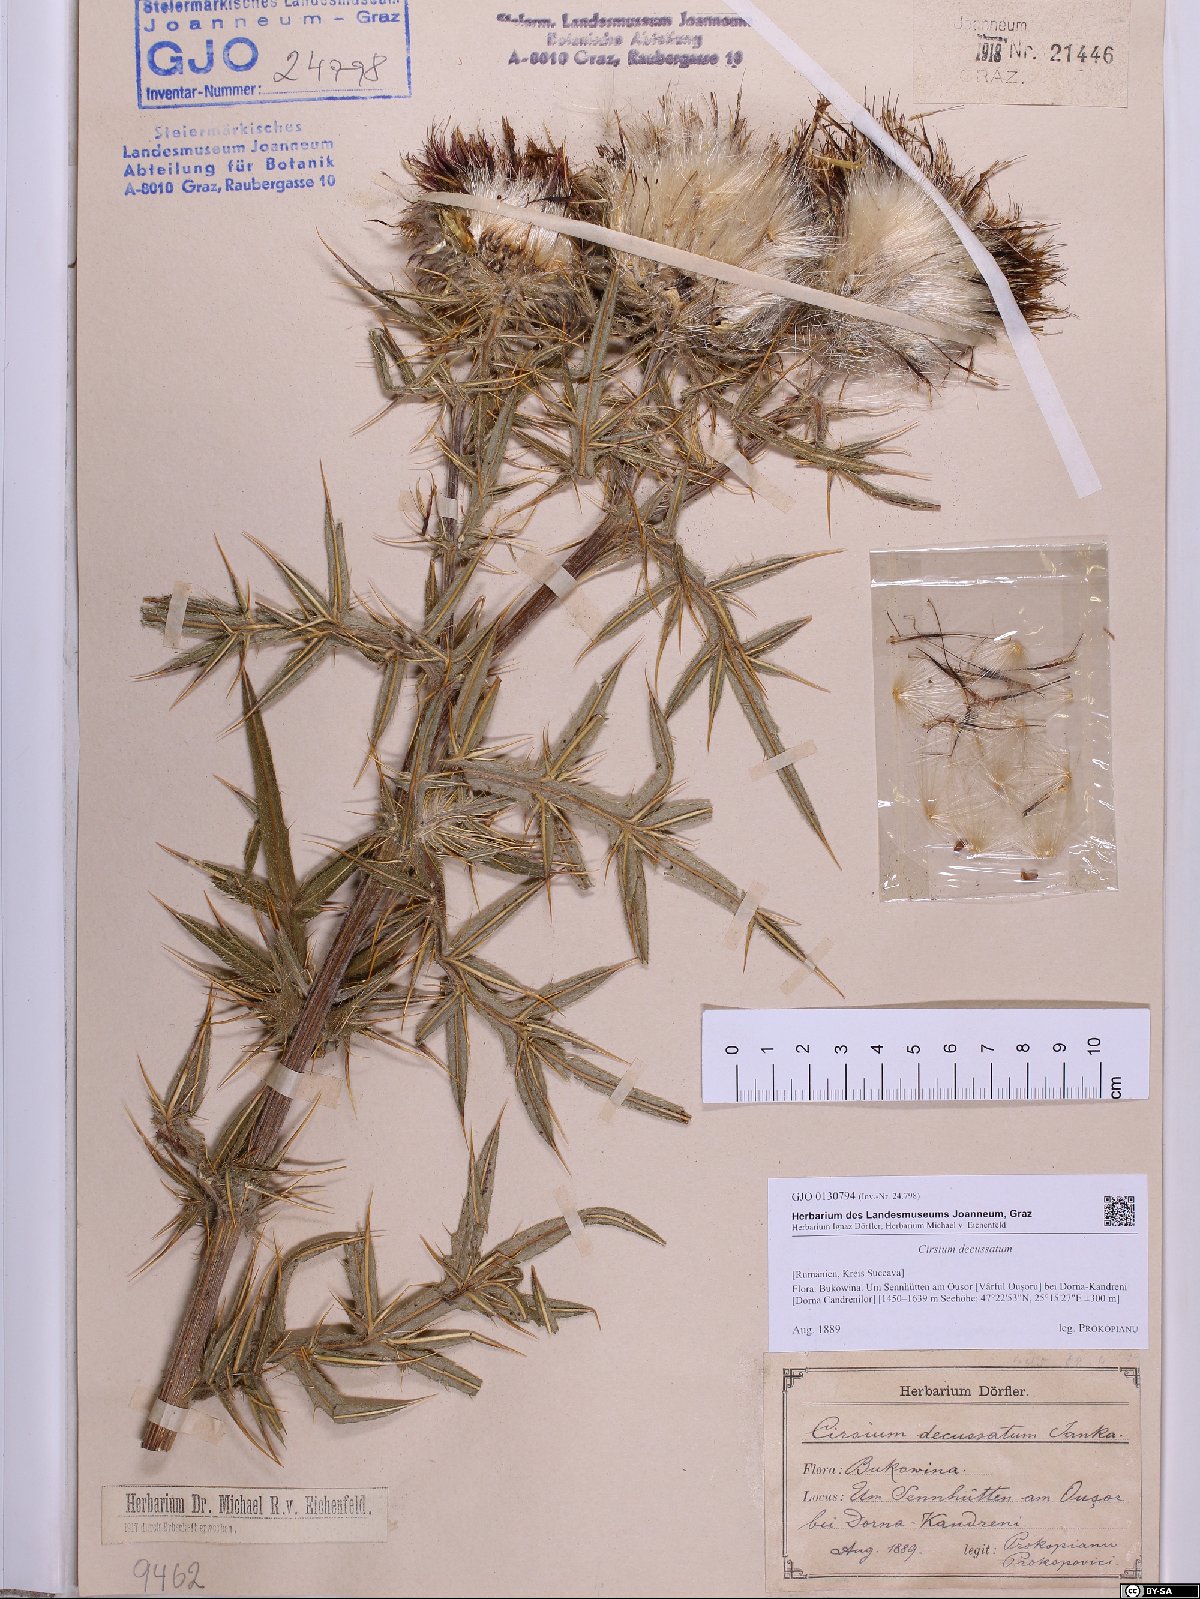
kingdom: Plantae
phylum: Tracheophyta
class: Magnoliopsida
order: Asterales
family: Asteraceae
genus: Lophiolepis
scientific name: Lophiolepis decussata
